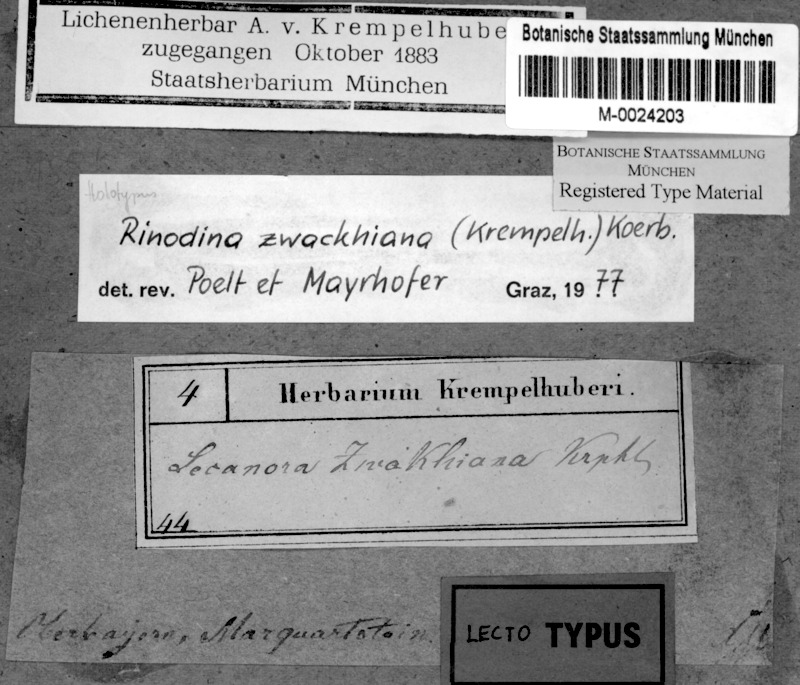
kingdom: Fungi
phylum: Ascomycota
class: Lecanoromycetes
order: Caliciales
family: Physciaceae
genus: Johnsheardia
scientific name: Johnsheardia zwackhiana
